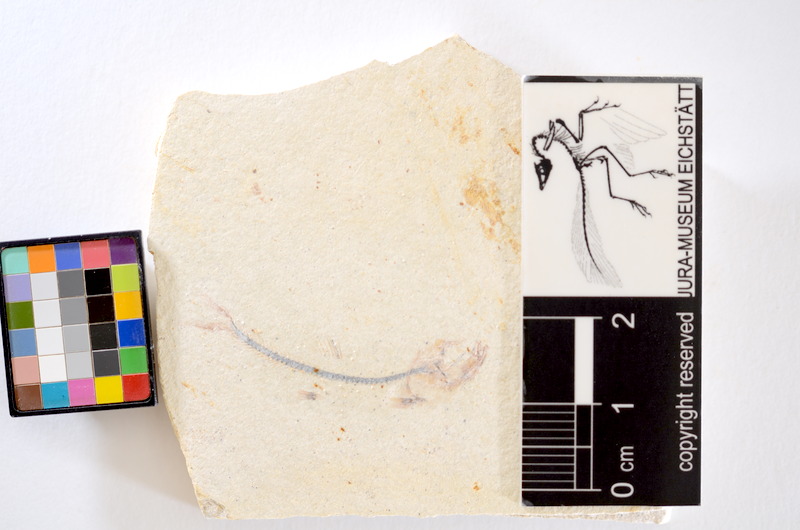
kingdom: Animalia
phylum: Chordata
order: Salmoniformes
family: Orthogonikleithridae
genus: Orthogonikleithrus
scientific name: Orthogonikleithrus hoelli
